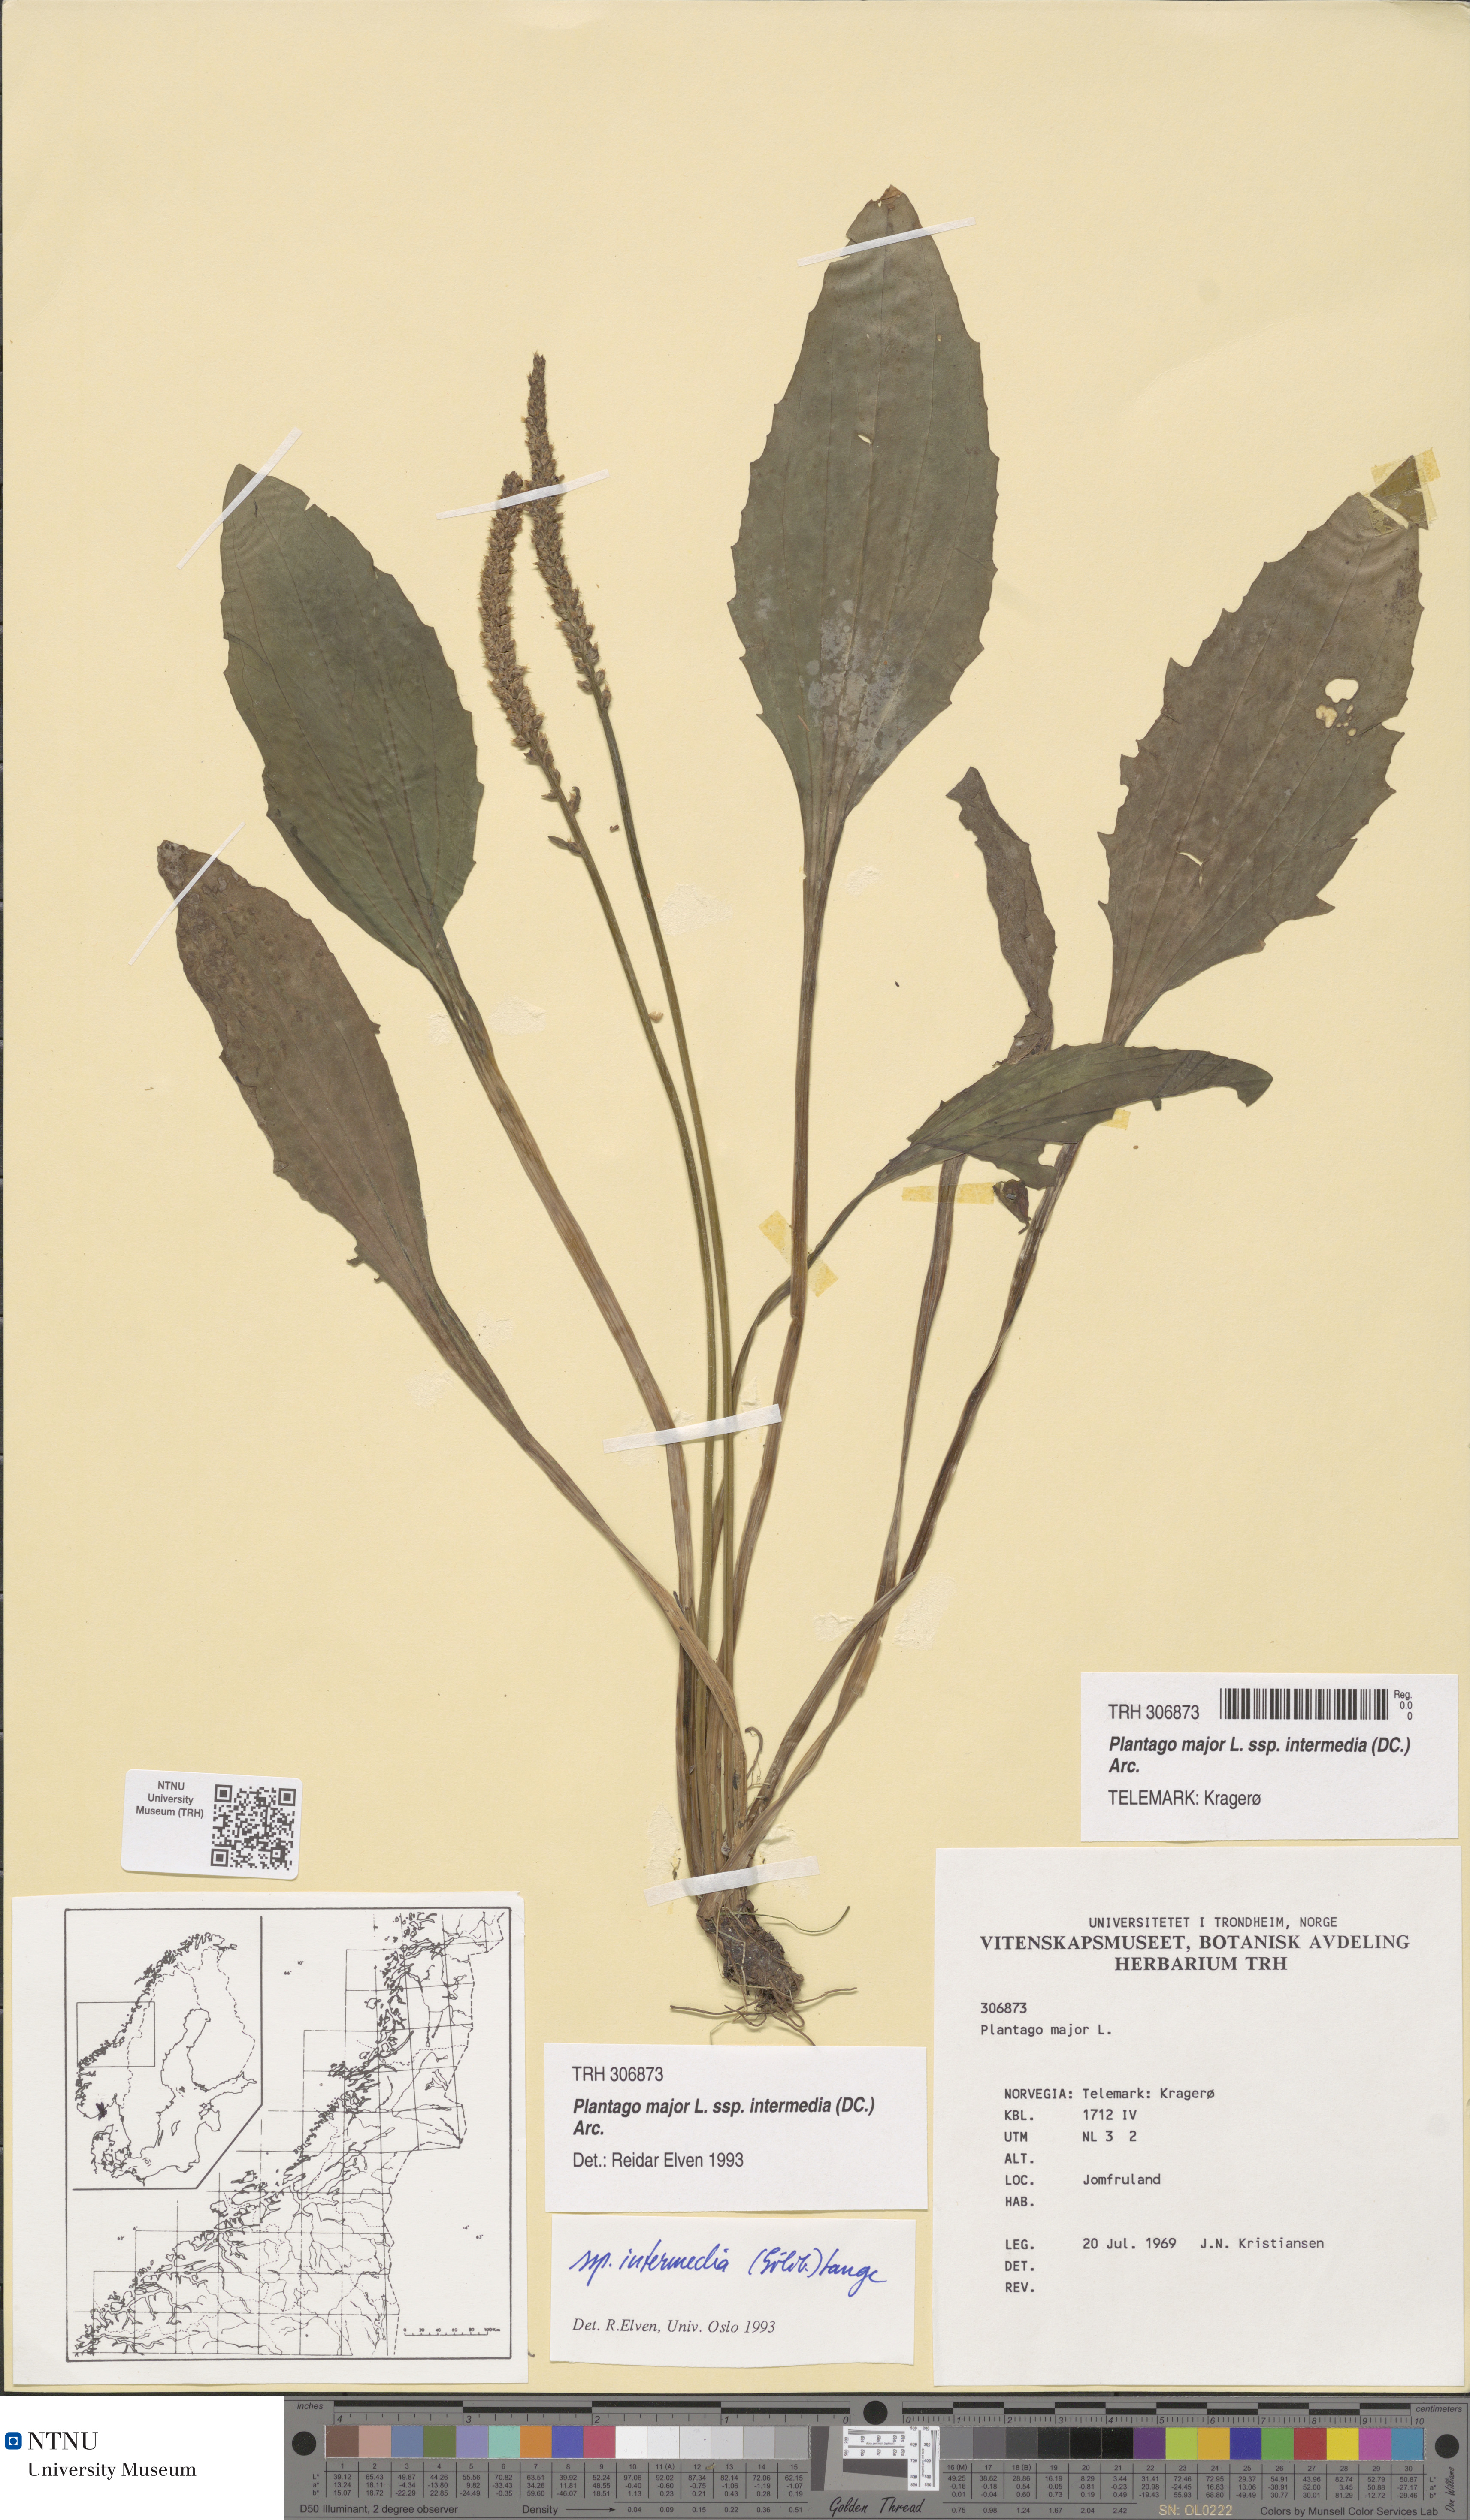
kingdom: Plantae
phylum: Tracheophyta
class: Magnoliopsida
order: Lamiales
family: Plantaginaceae
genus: Plantago
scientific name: Plantago uliginosa
